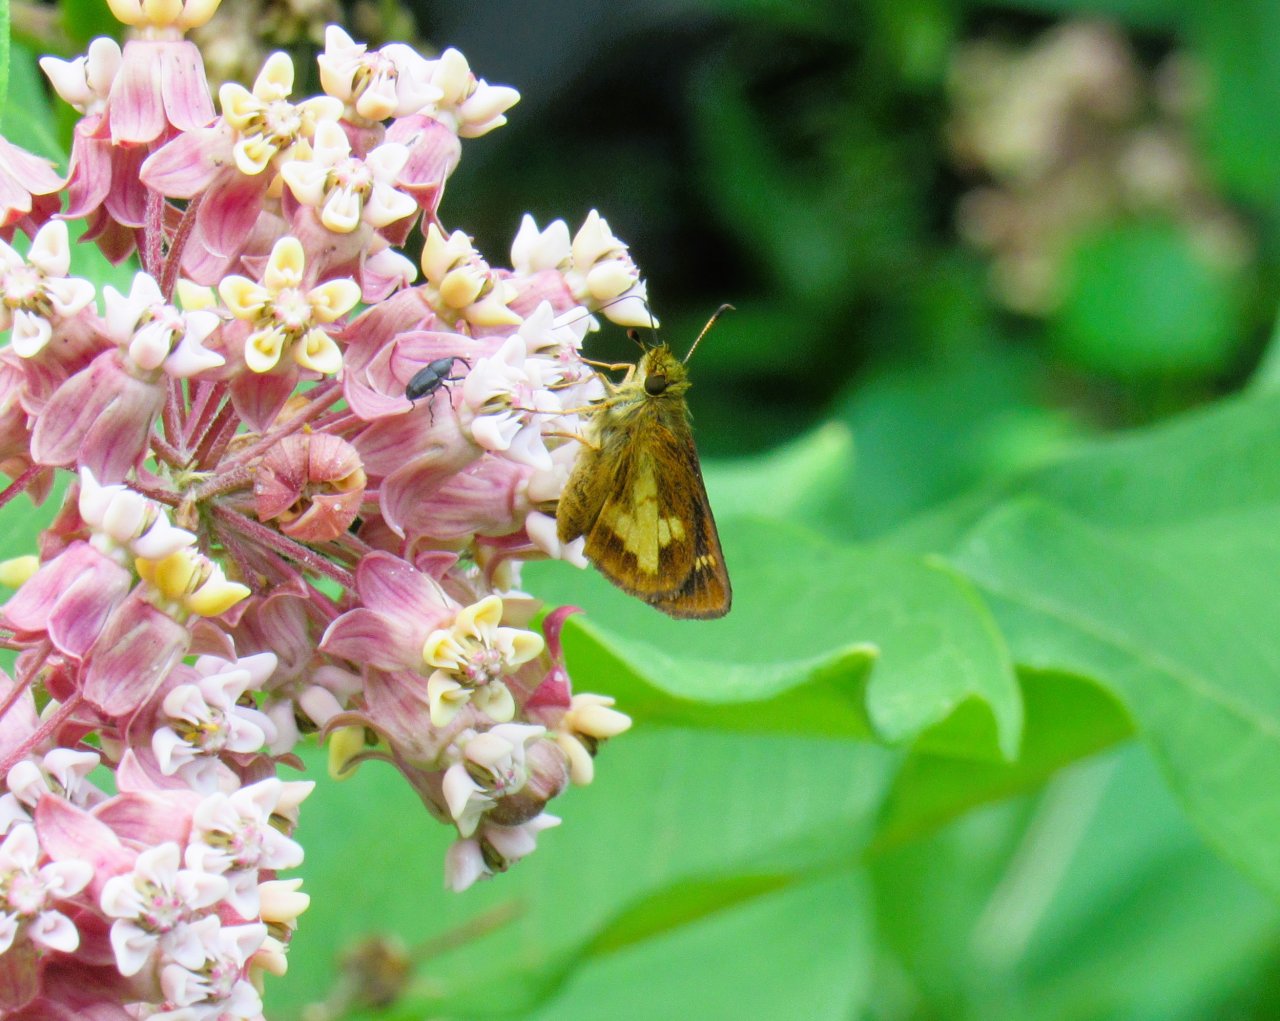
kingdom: Animalia
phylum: Arthropoda
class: Insecta
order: Lepidoptera
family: Hesperiidae
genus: Poanes
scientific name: Poanes massasoit
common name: Mulberry Wing
